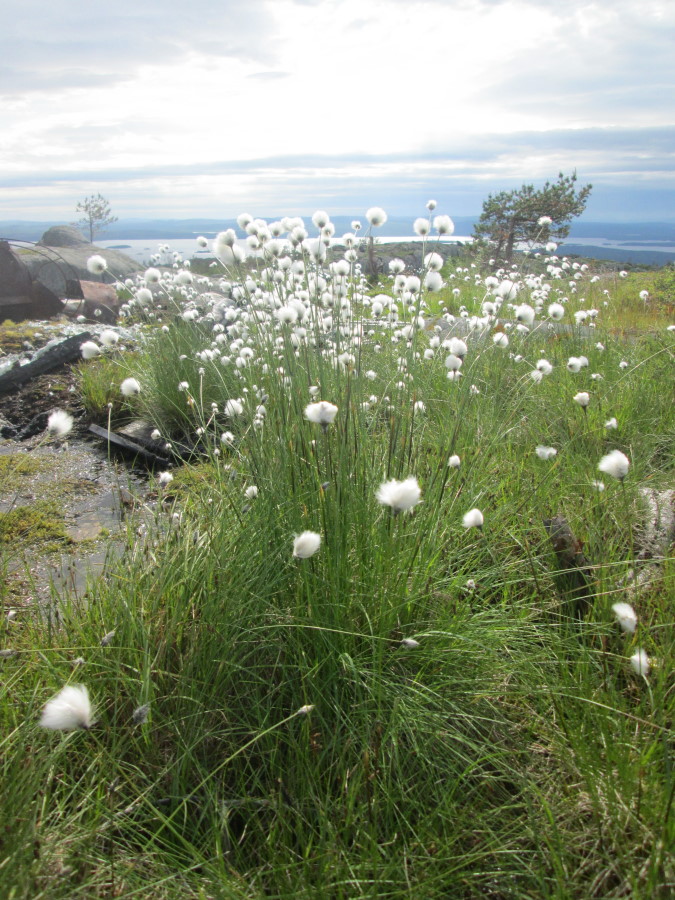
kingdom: Plantae
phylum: Tracheophyta
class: Liliopsida
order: Poales
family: Cyperaceae
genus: Eriophorum
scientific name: Eriophorum vaginatum
